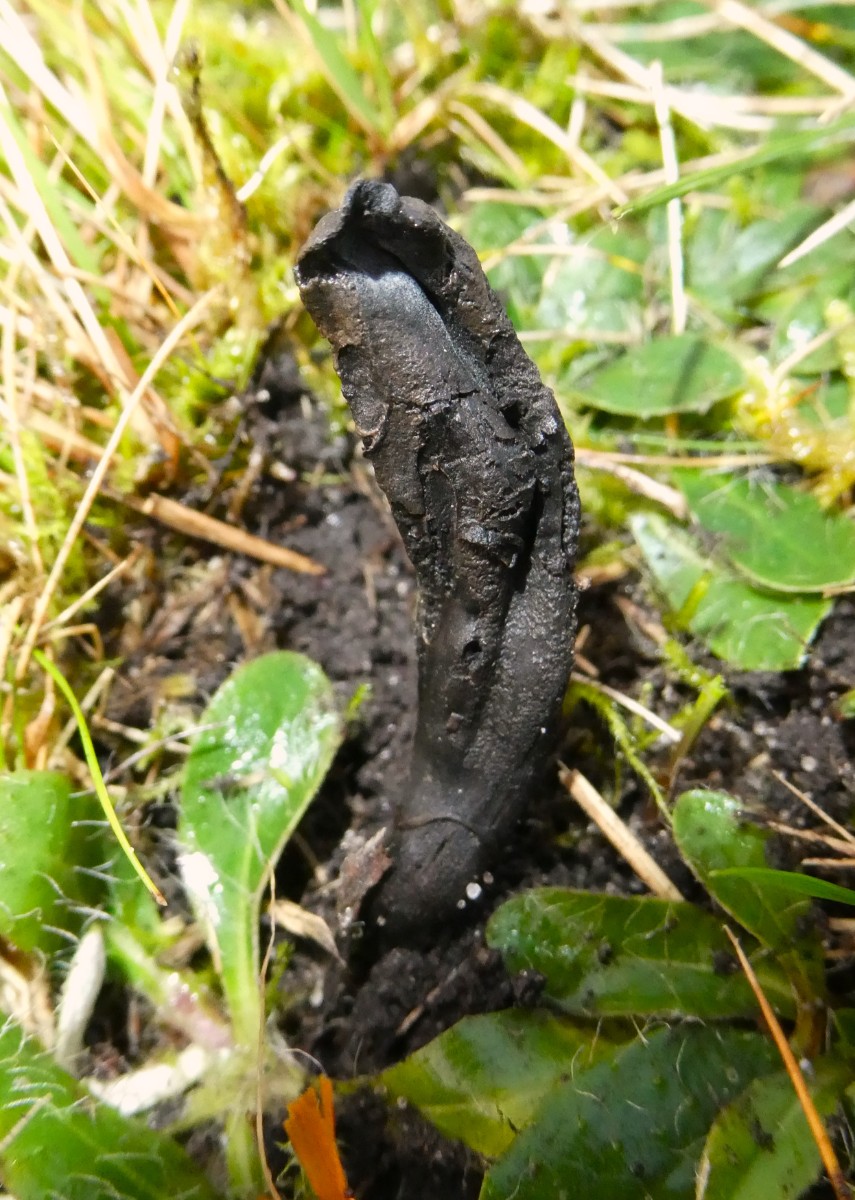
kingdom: Fungi
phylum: Ascomycota
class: Geoglossomycetes
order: Geoglossales
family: Geoglossaceae
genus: Geoglossum
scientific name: Geoglossum umbratile
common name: slank jordtunge
